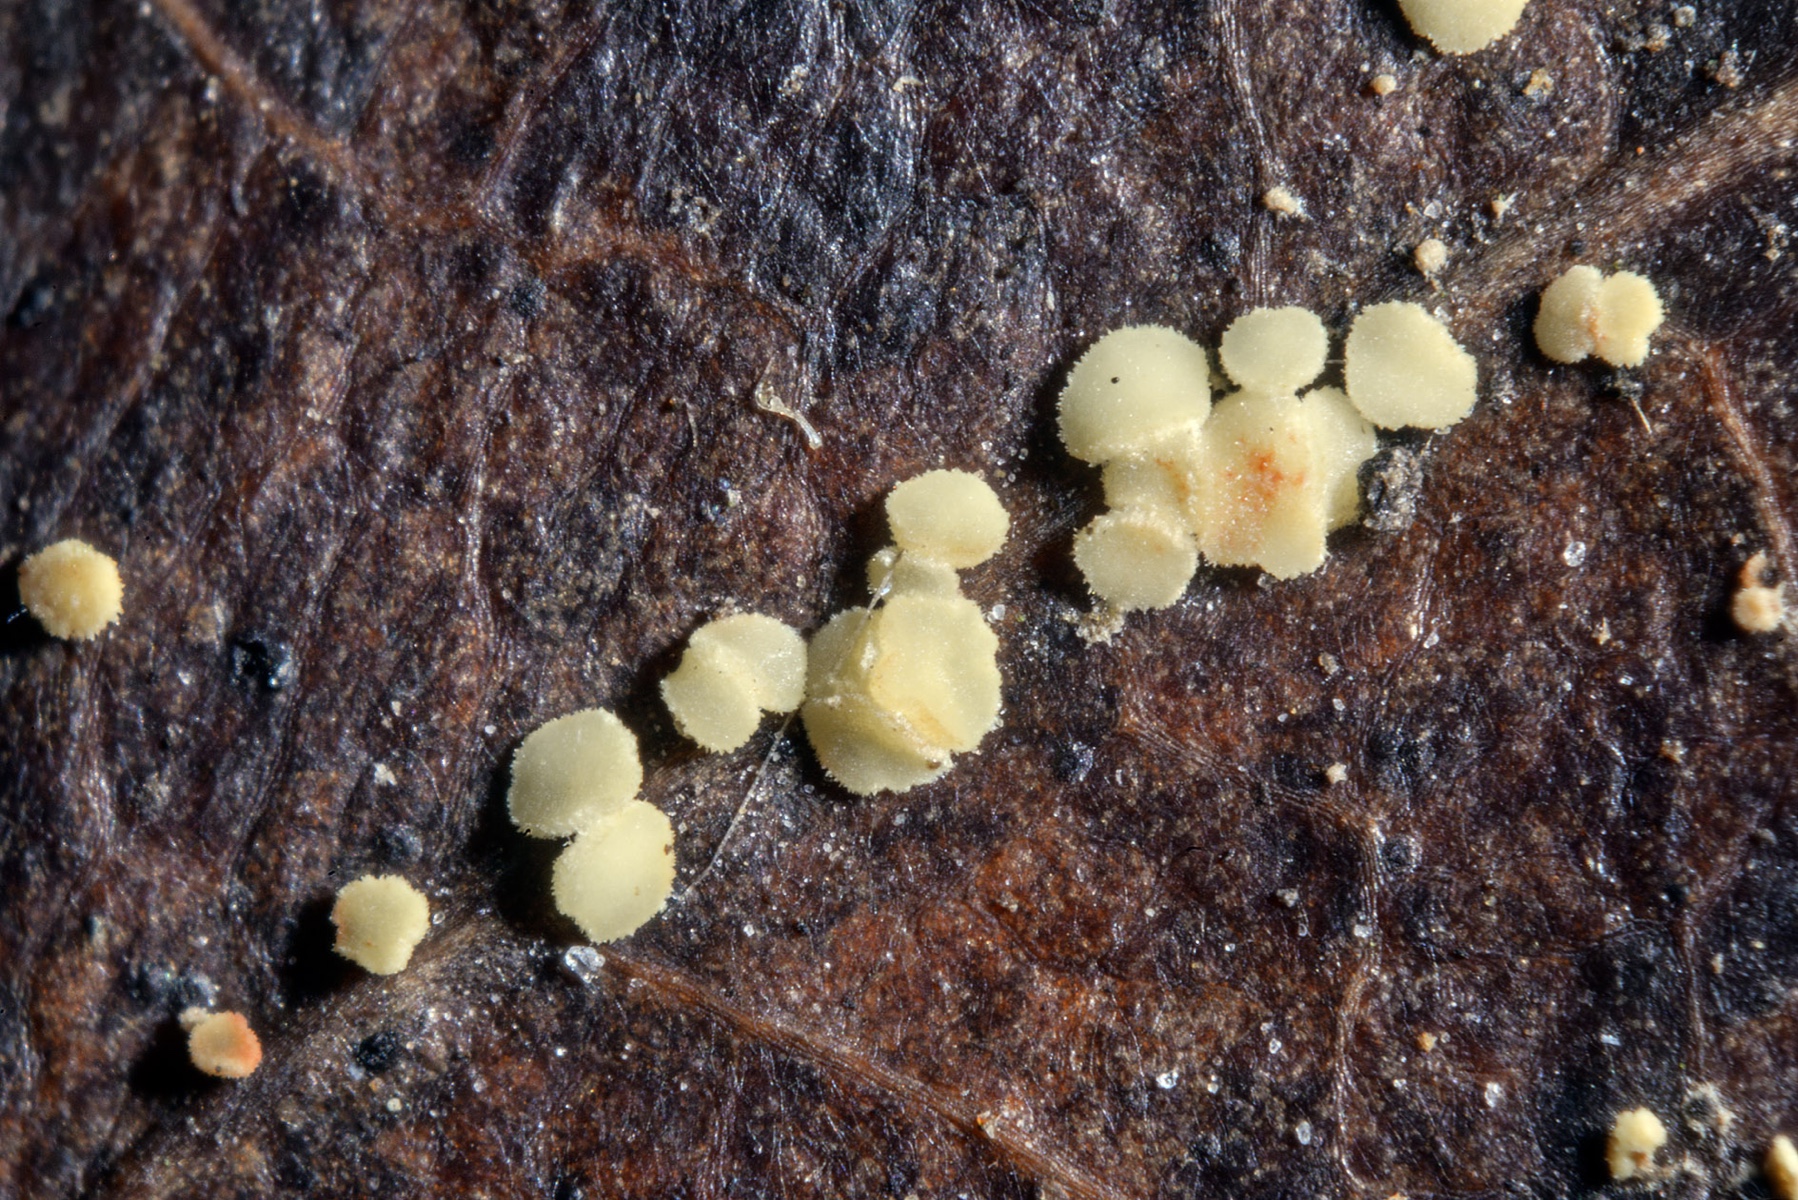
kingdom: Fungi
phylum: Ascomycota
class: Leotiomycetes
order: Helotiales
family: Pezizellaceae
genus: Calycellina
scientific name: Calycellina punctata
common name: citrongul hårskive
